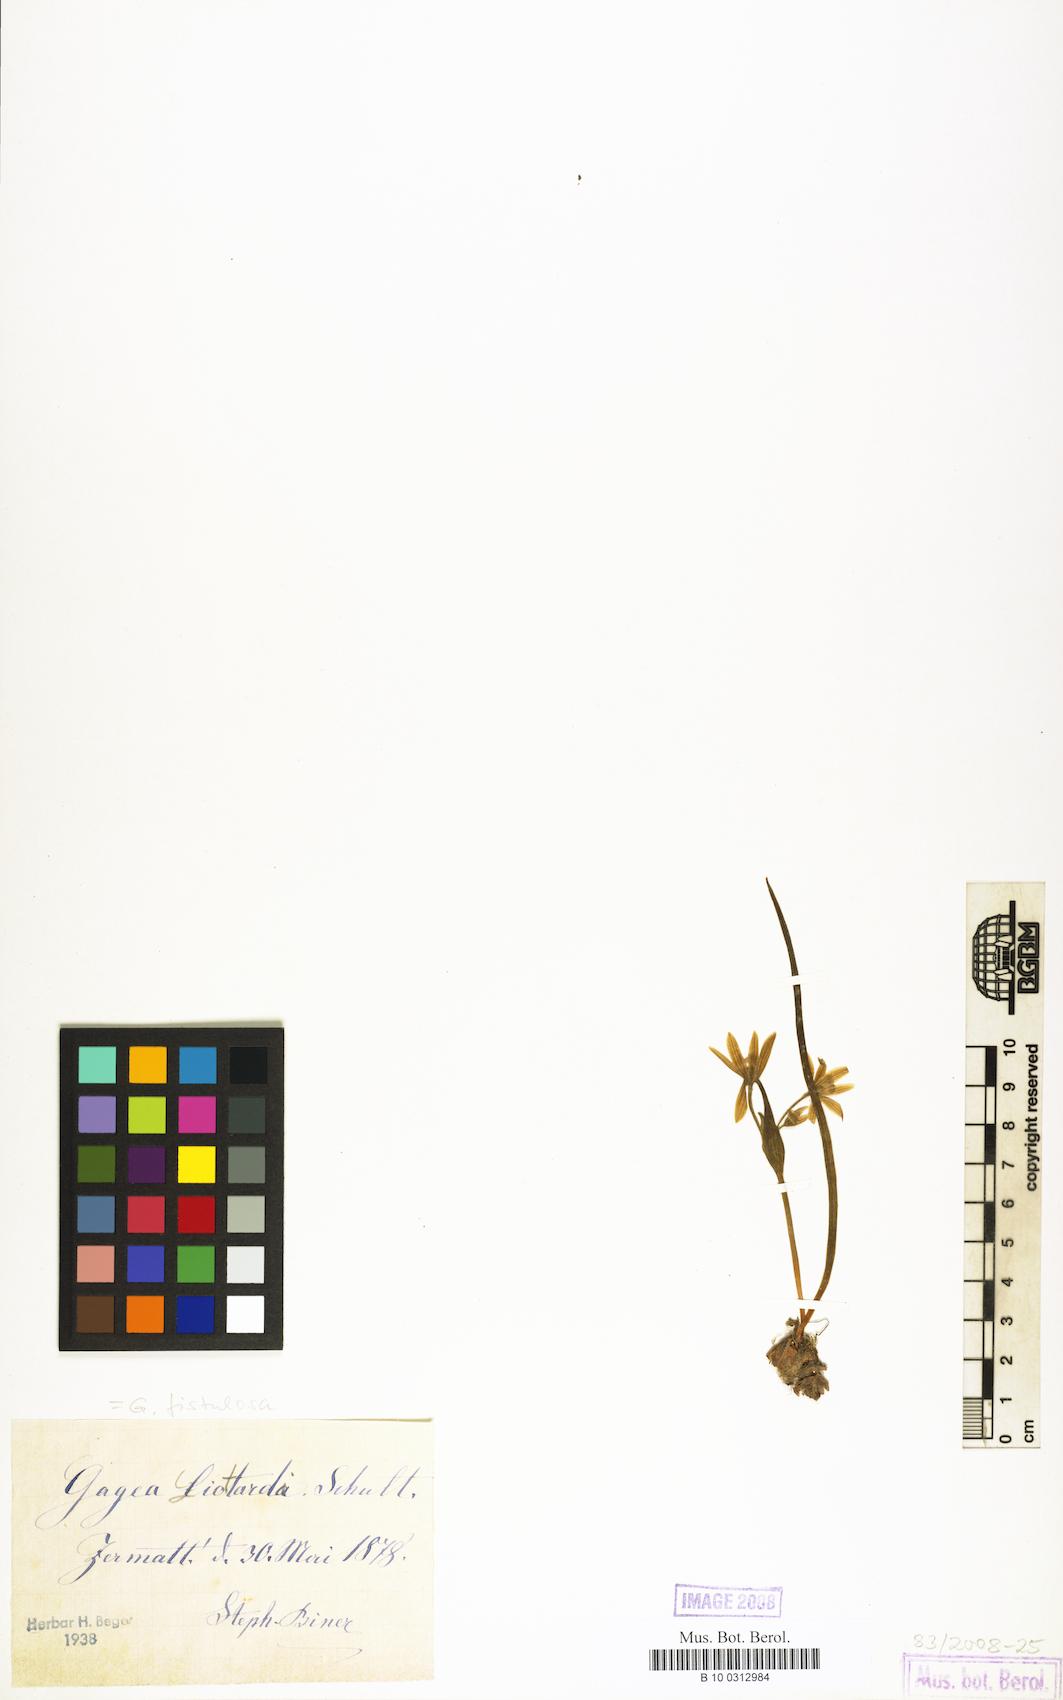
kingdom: Plantae
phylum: Tracheophyta
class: Liliopsida
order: Liliales
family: Liliaceae
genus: Gagea
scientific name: Gagea
